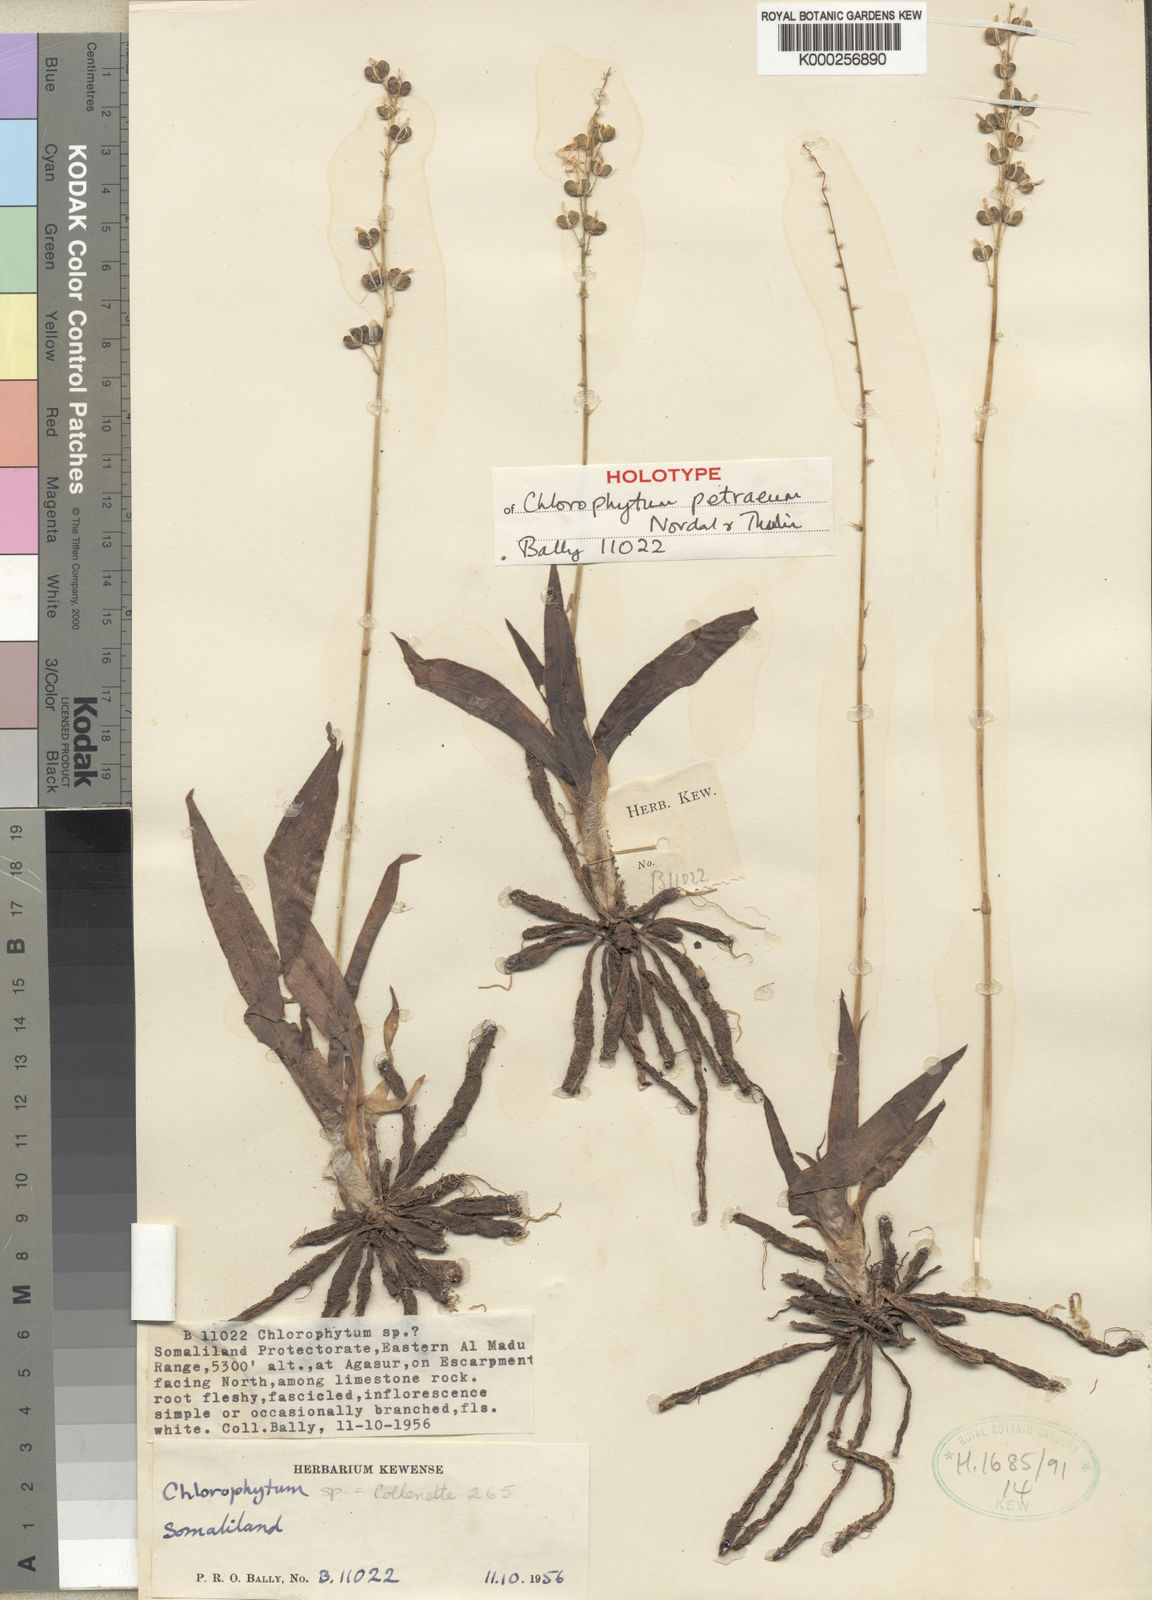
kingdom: Plantae
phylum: Tracheophyta
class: Liliopsida
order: Asparagales
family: Asparagaceae
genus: Chlorophytum
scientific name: Chlorophytum petraeum
